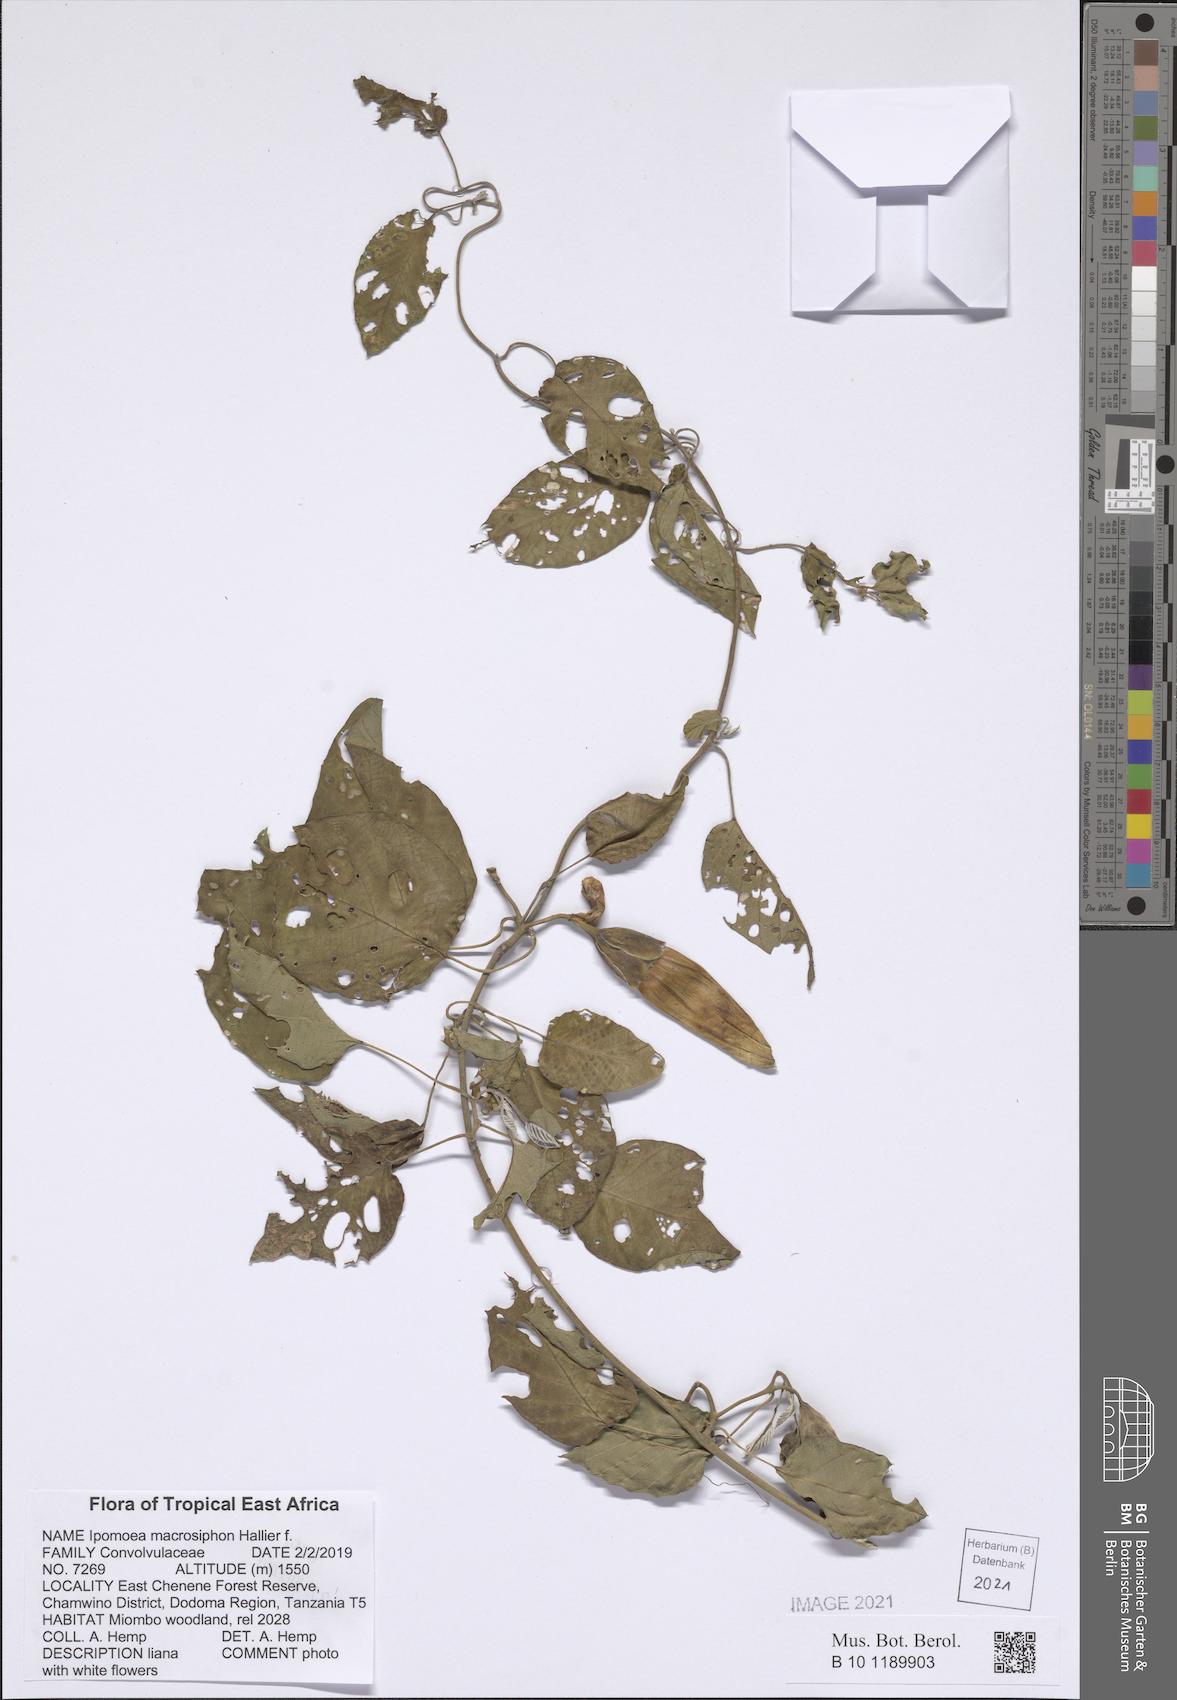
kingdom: Plantae
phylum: Tracheophyta
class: Magnoliopsida
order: Solanales
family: Convolvulaceae
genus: Ipomoea
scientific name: Ipomoea macrosiphon
